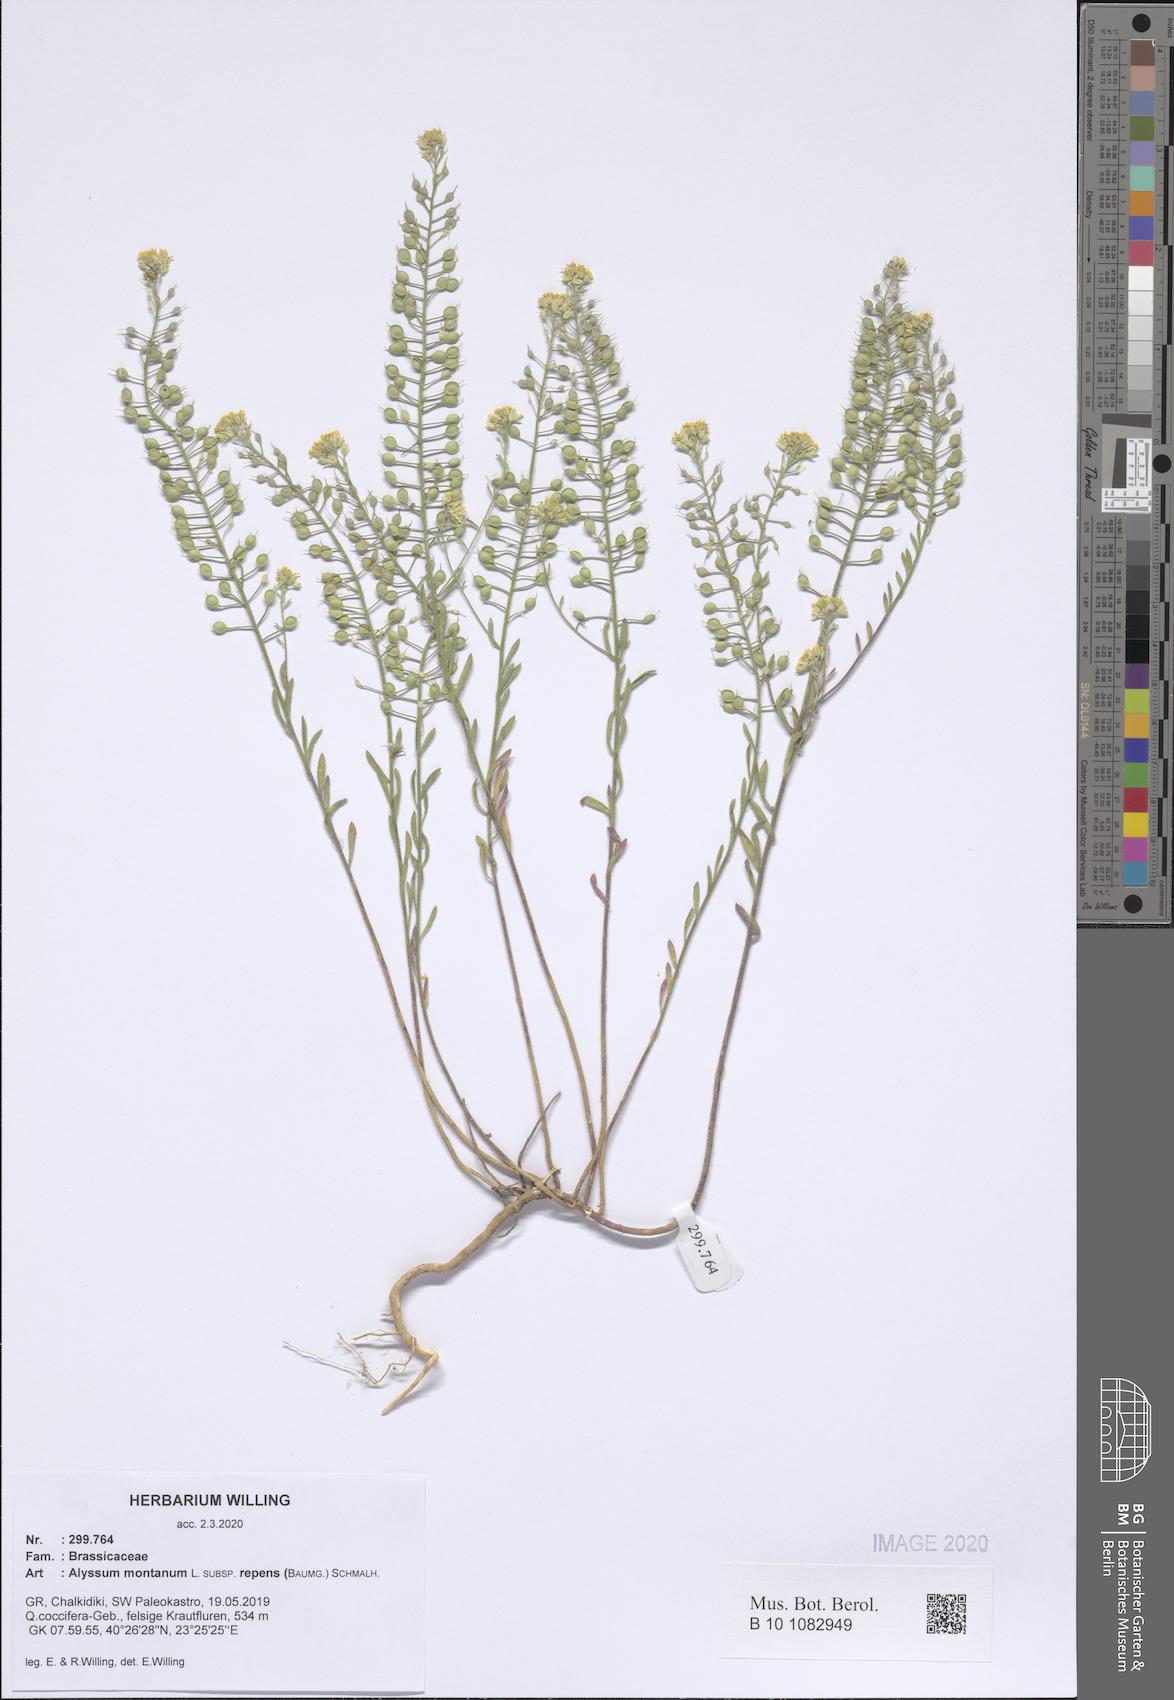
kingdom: Plantae
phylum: Tracheophyta
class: Magnoliopsida
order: Brassicales
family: Brassicaceae
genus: Alyssum
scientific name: Alyssum trichostachyum
